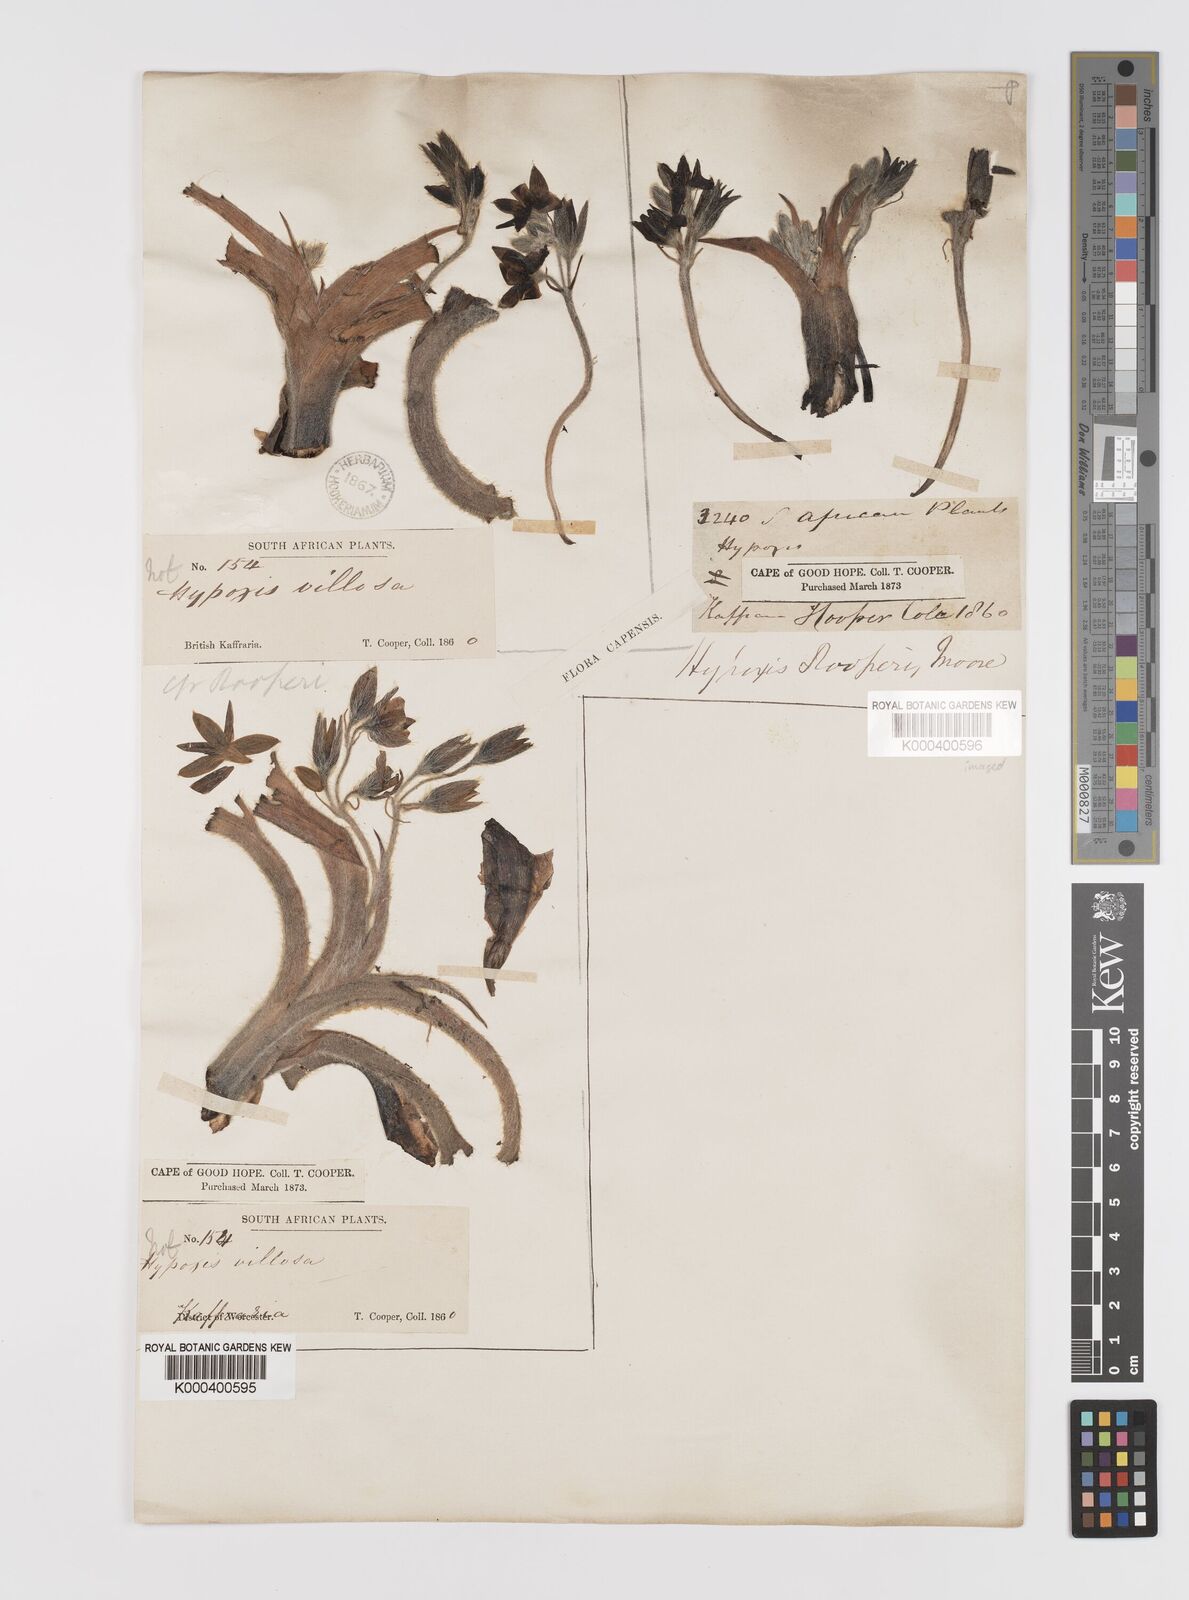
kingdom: Plantae
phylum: Tracheophyta
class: Liliopsida
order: Asparagales
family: Hypoxidaceae
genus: Hypoxis
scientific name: Hypoxis jacquinii
